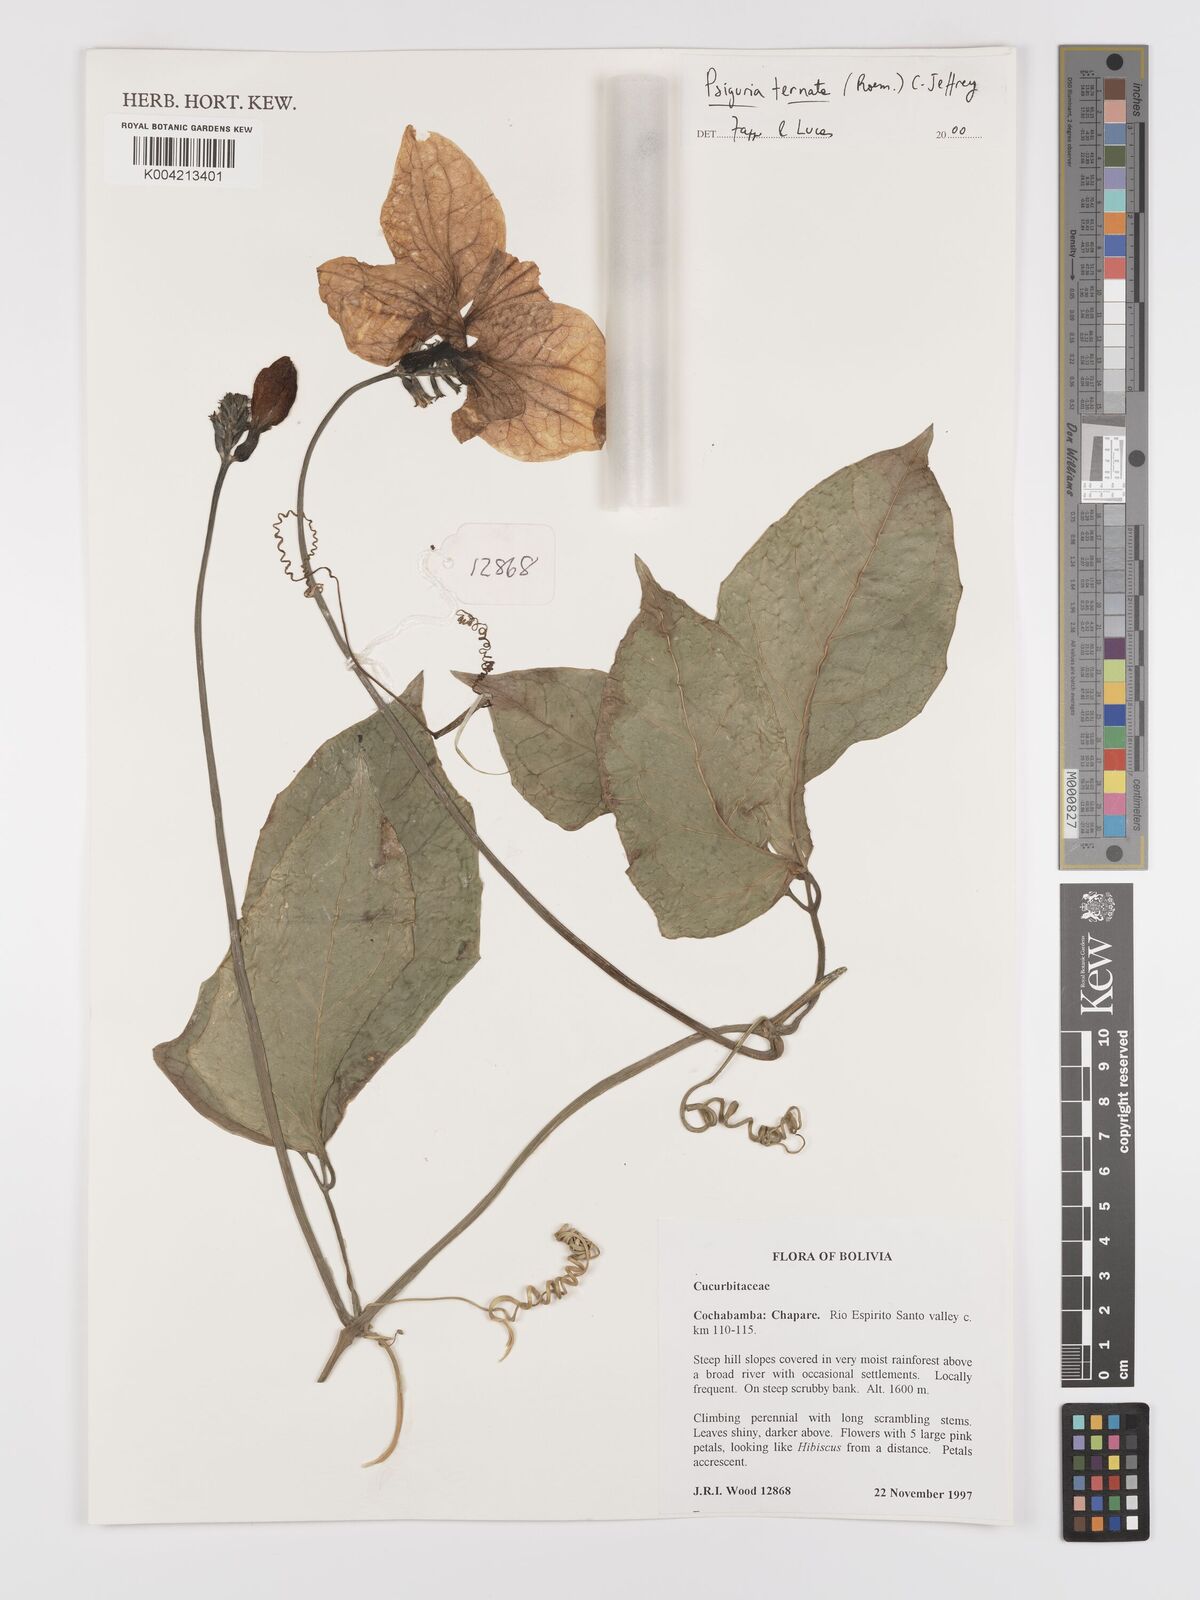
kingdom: Plantae
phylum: Tracheophyta
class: Magnoliopsida
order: Cucurbitales
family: Cucurbitaceae
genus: Psiguria
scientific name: Psiguria ternata
